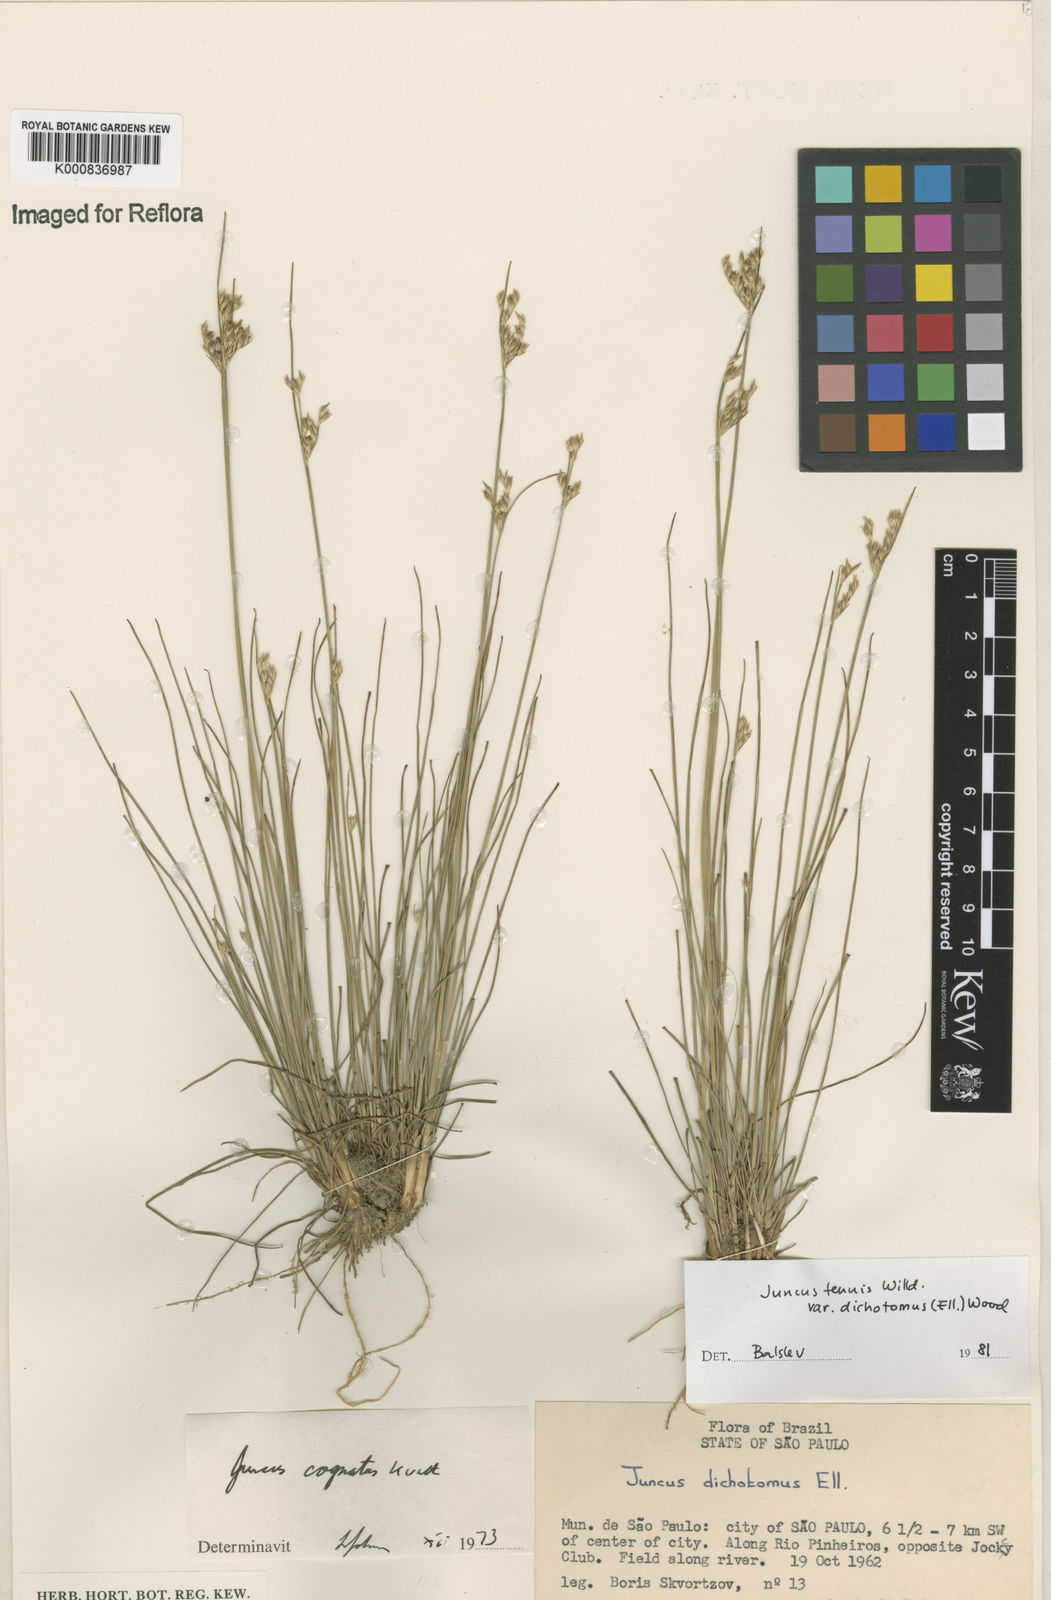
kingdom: Plantae
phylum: Tracheophyta
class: Liliopsida
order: Poales
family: Juncaceae
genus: Juncus
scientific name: Juncus tenuis
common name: Slender rush
